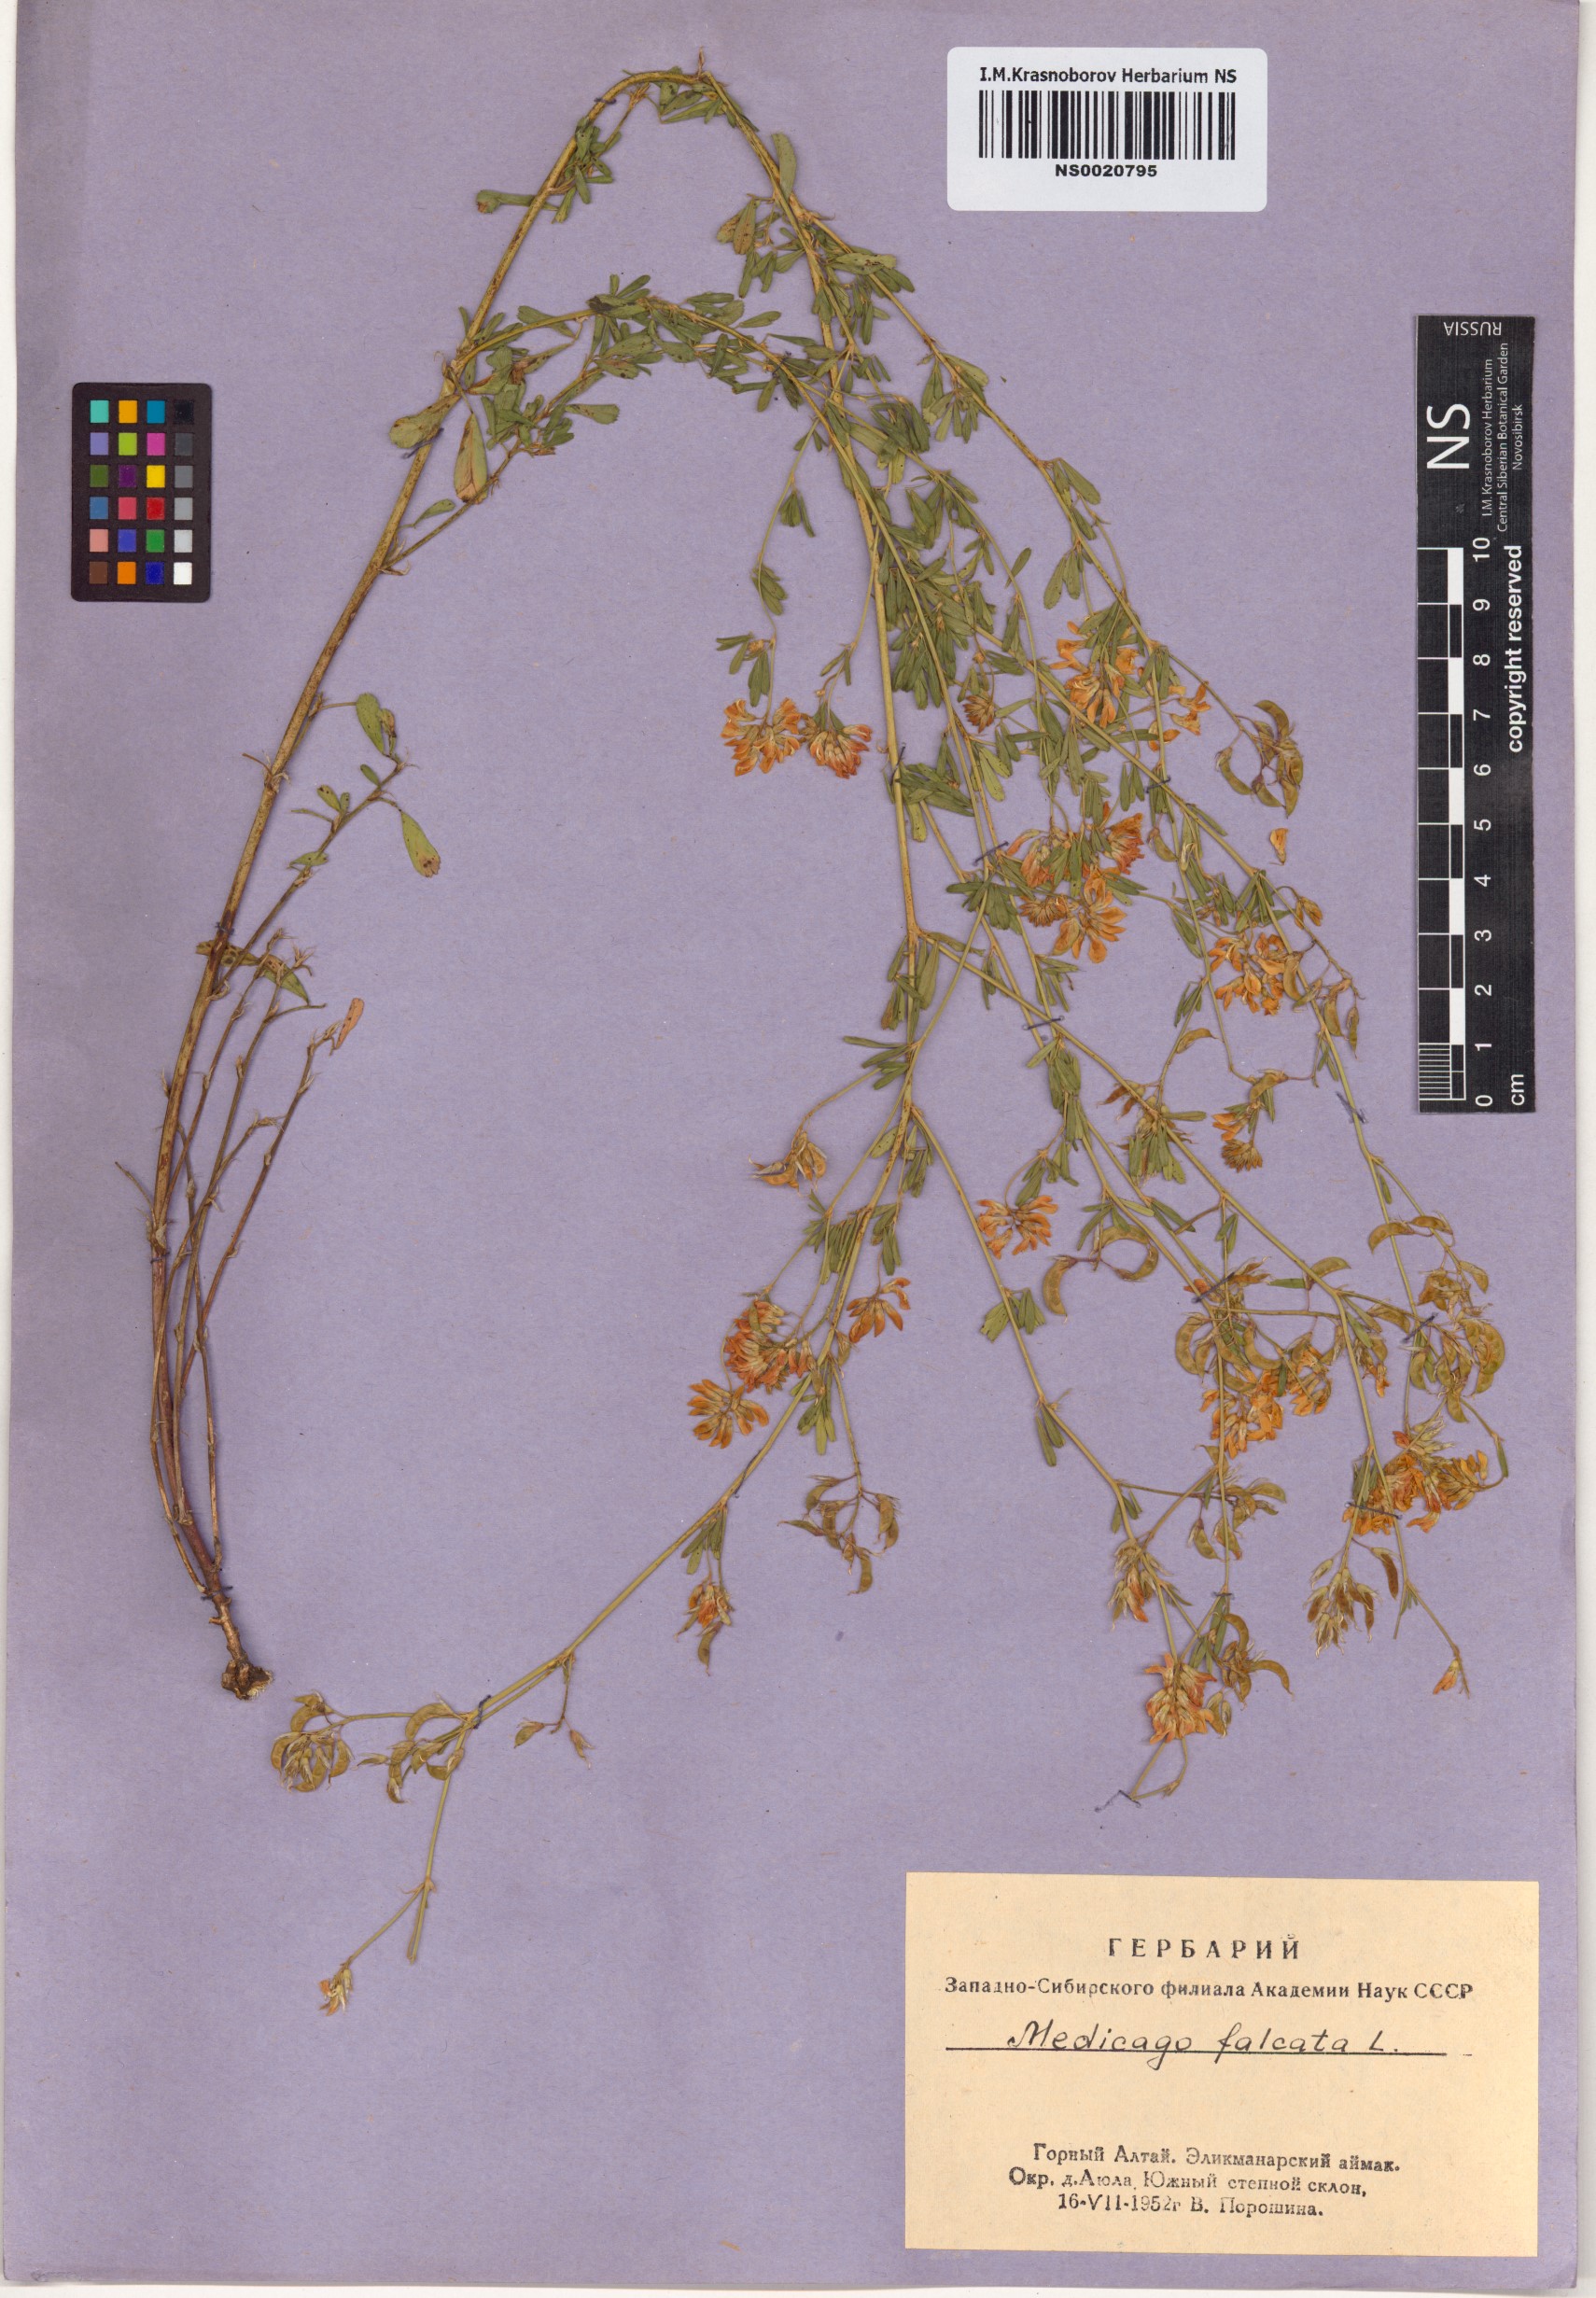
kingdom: Plantae
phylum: Tracheophyta
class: Magnoliopsida
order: Fabales
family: Fabaceae
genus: Medicago
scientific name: Medicago falcata
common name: Sickle medick
